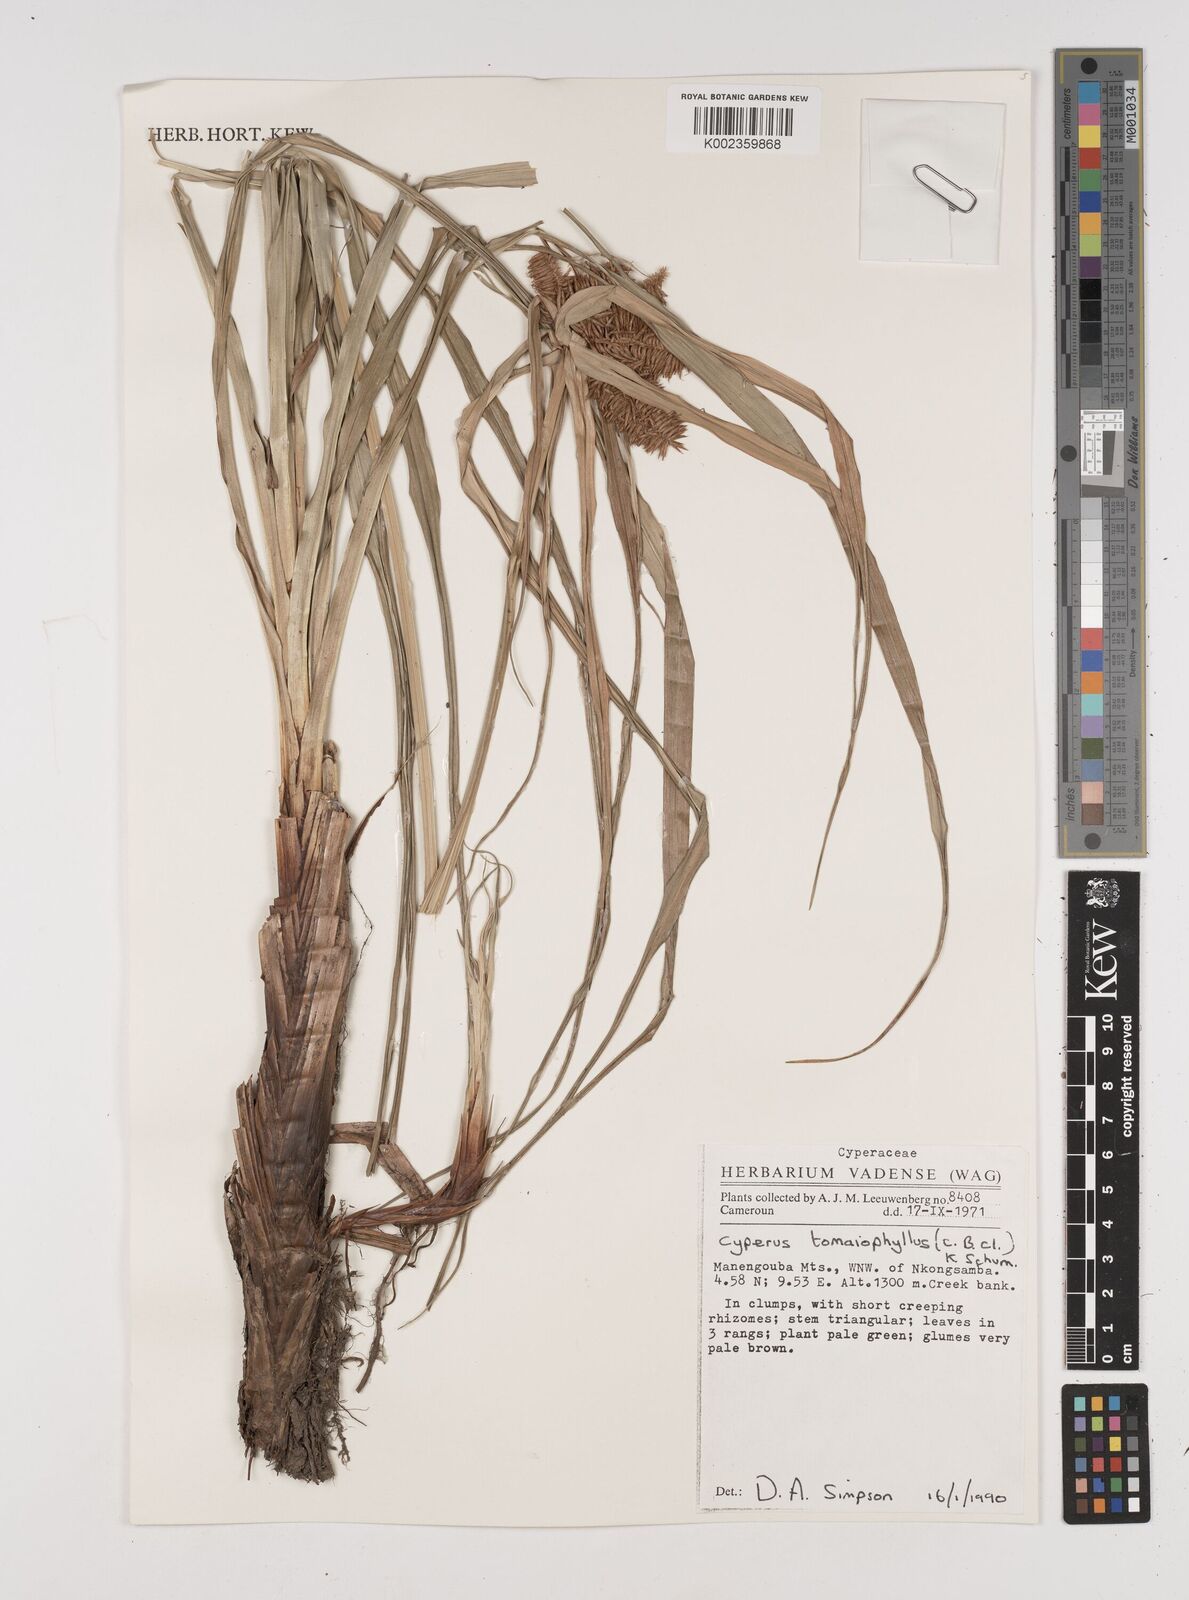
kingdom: Plantae
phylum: Tracheophyta
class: Liliopsida
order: Poales
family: Cyperaceae
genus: Cyperus
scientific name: Cyperus tomaiophyllus
